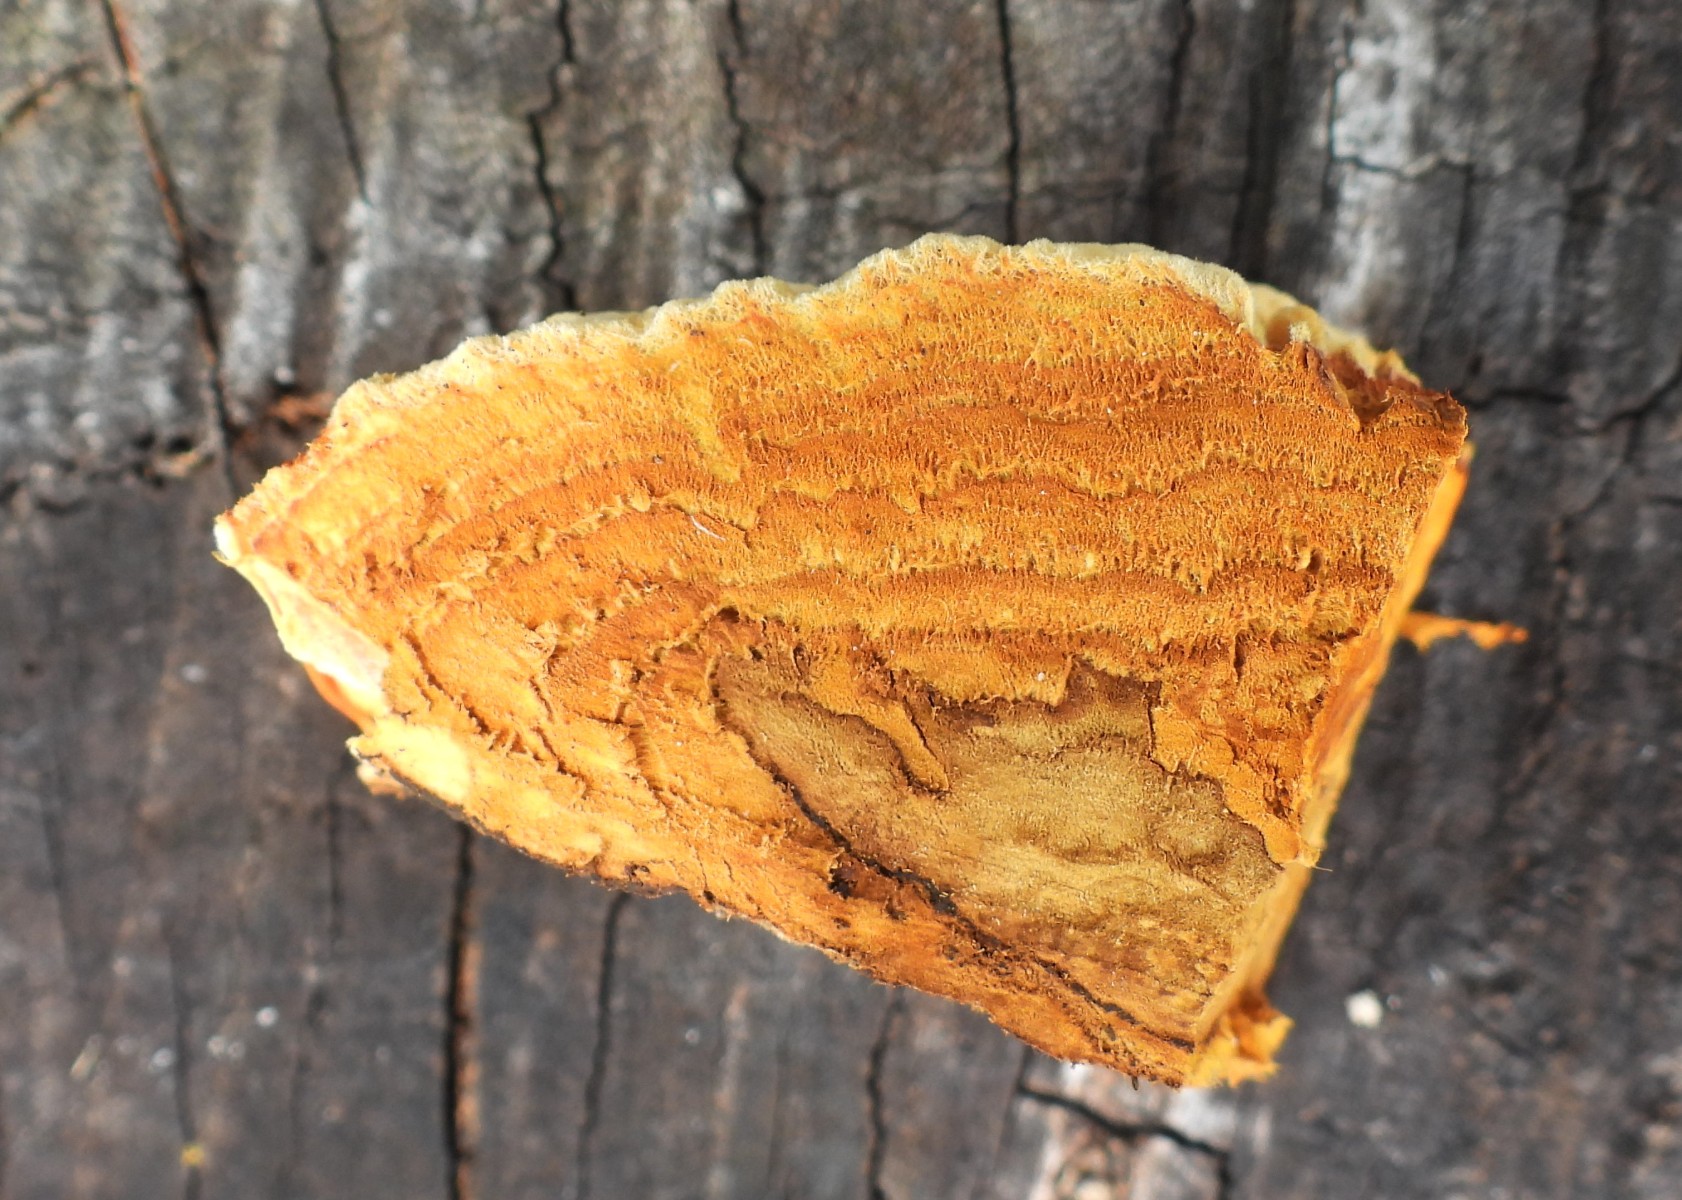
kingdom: Fungi
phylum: Basidiomycota
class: Agaricomycetes
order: Gloeophyllales
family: Gloeophyllaceae
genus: Gloeophyllum
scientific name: Gloeophyllum odoratum
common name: duftende korkhat
